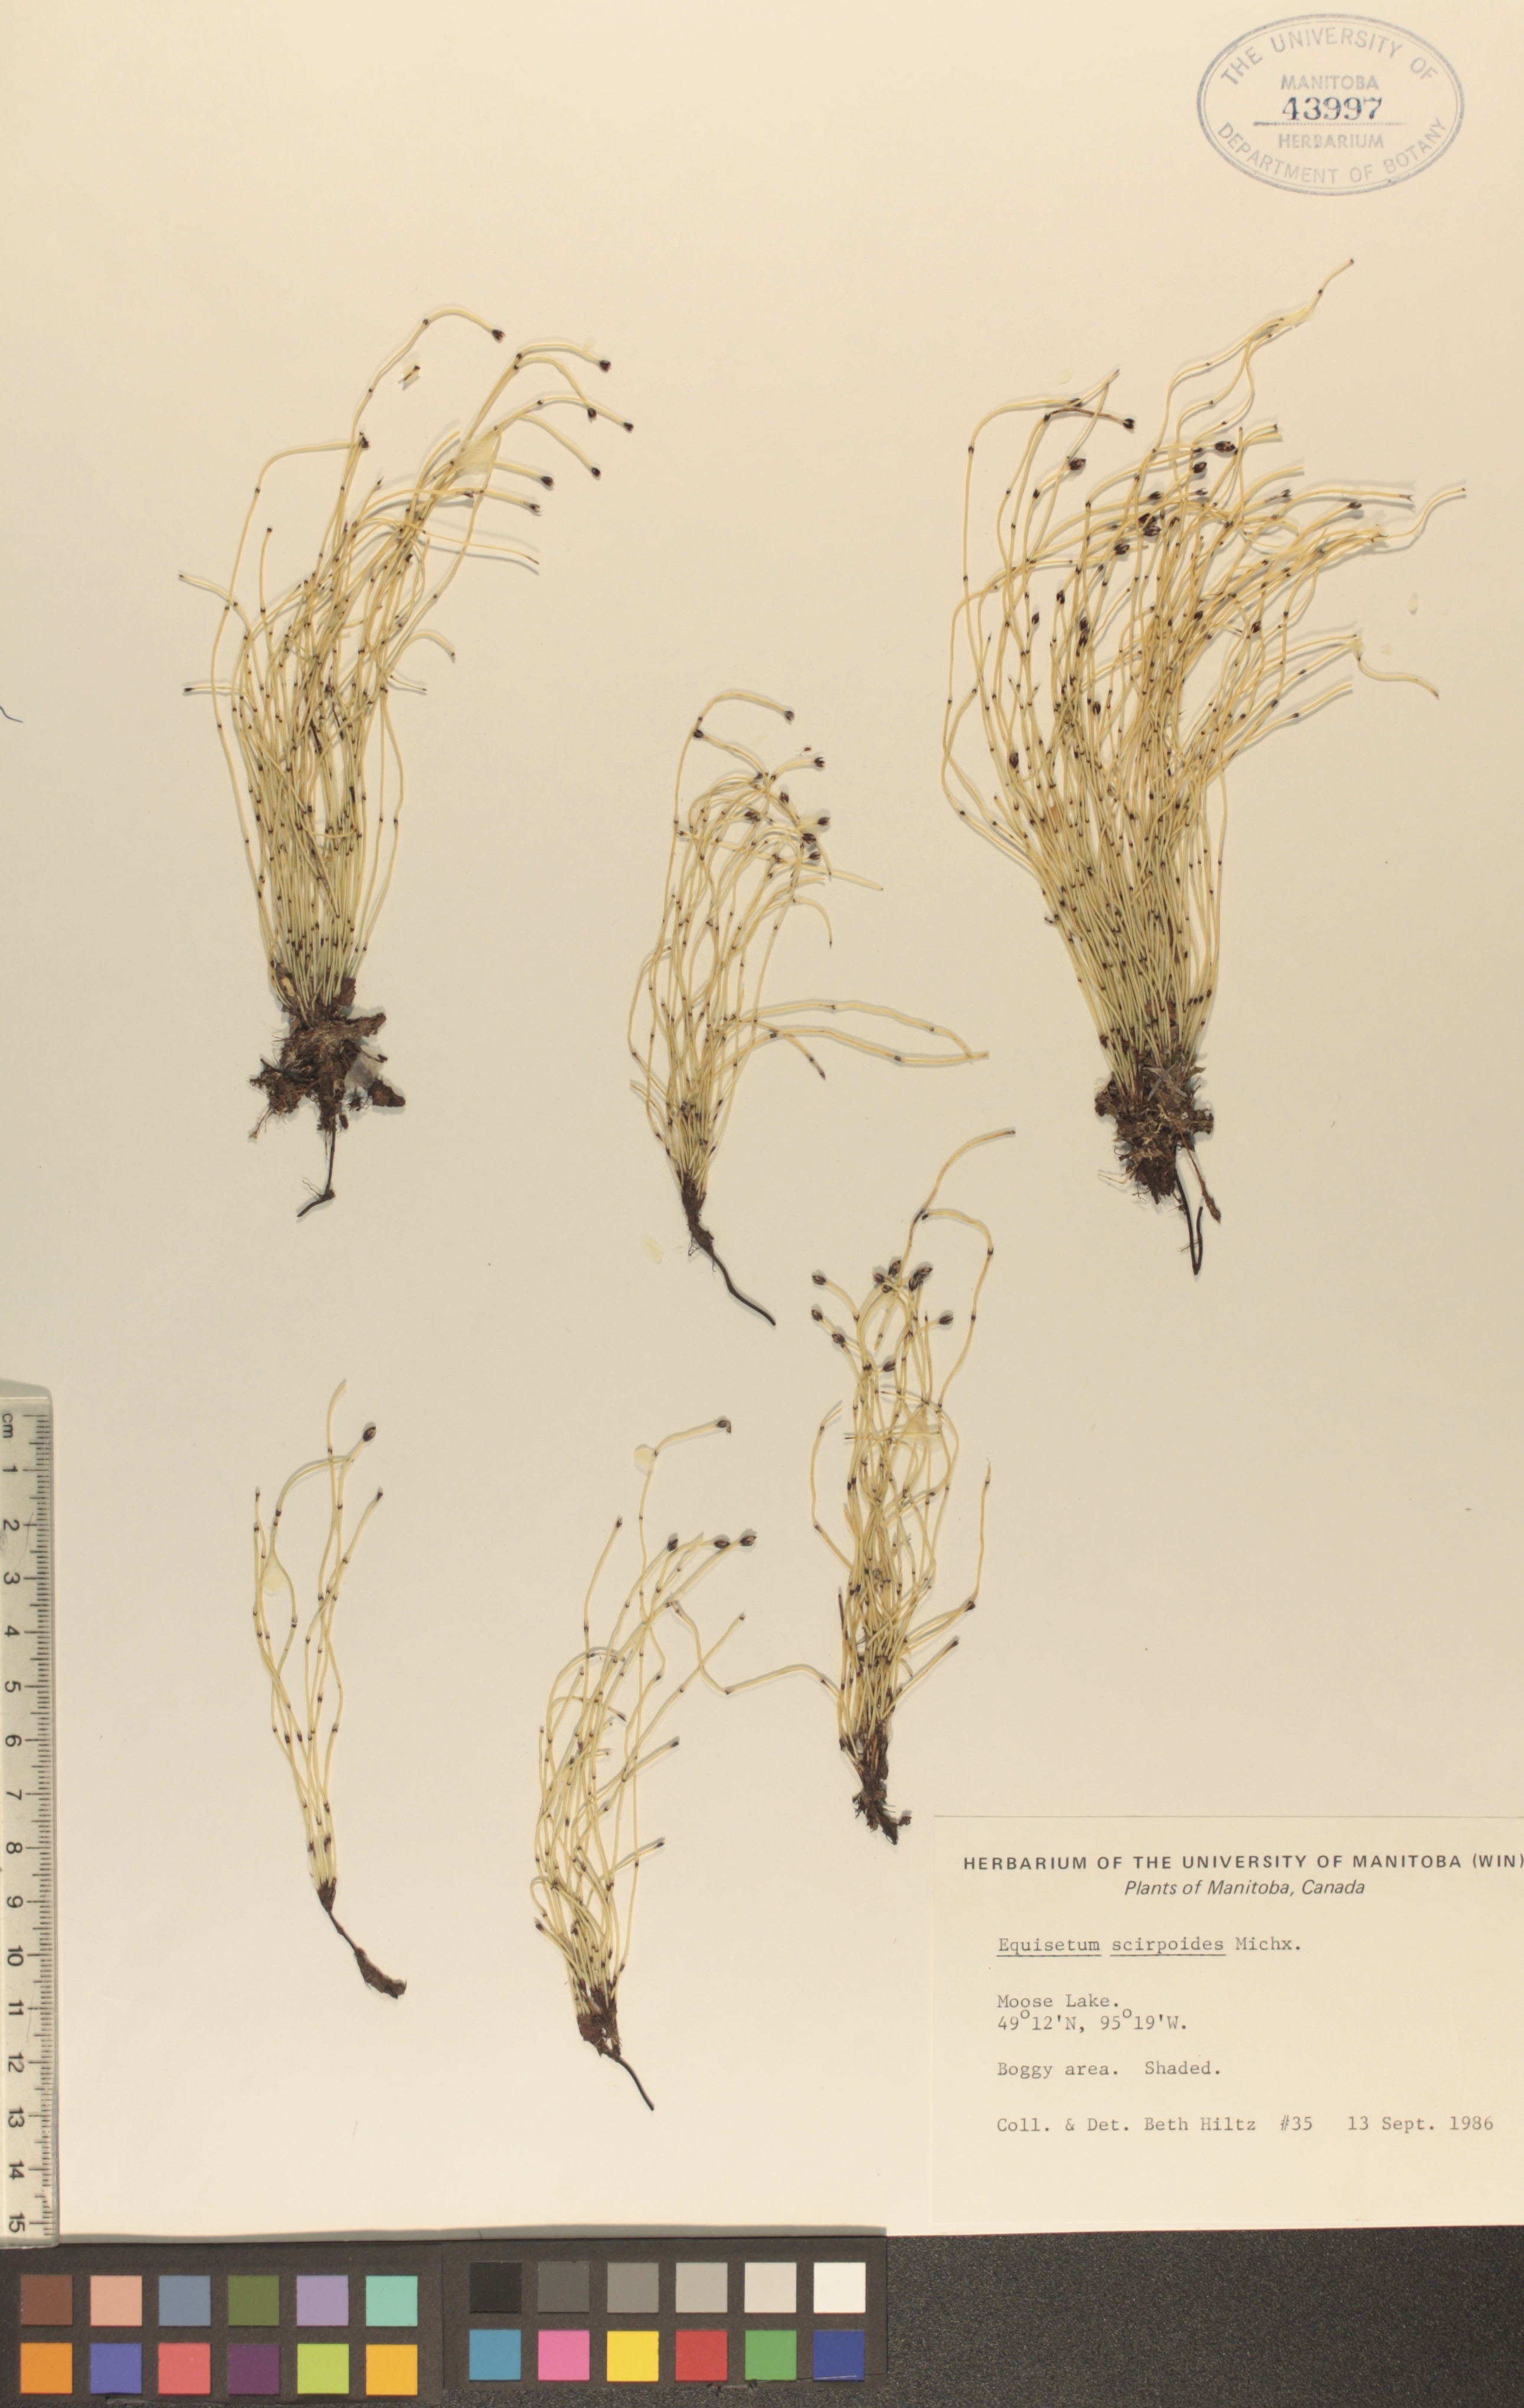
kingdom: Plantae
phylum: Tracheophyta
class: Polypodiopsida
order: Equisetales
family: Equisetaceae
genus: Equisetum
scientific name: Equisetum scirpoides
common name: Delicate horsetail
